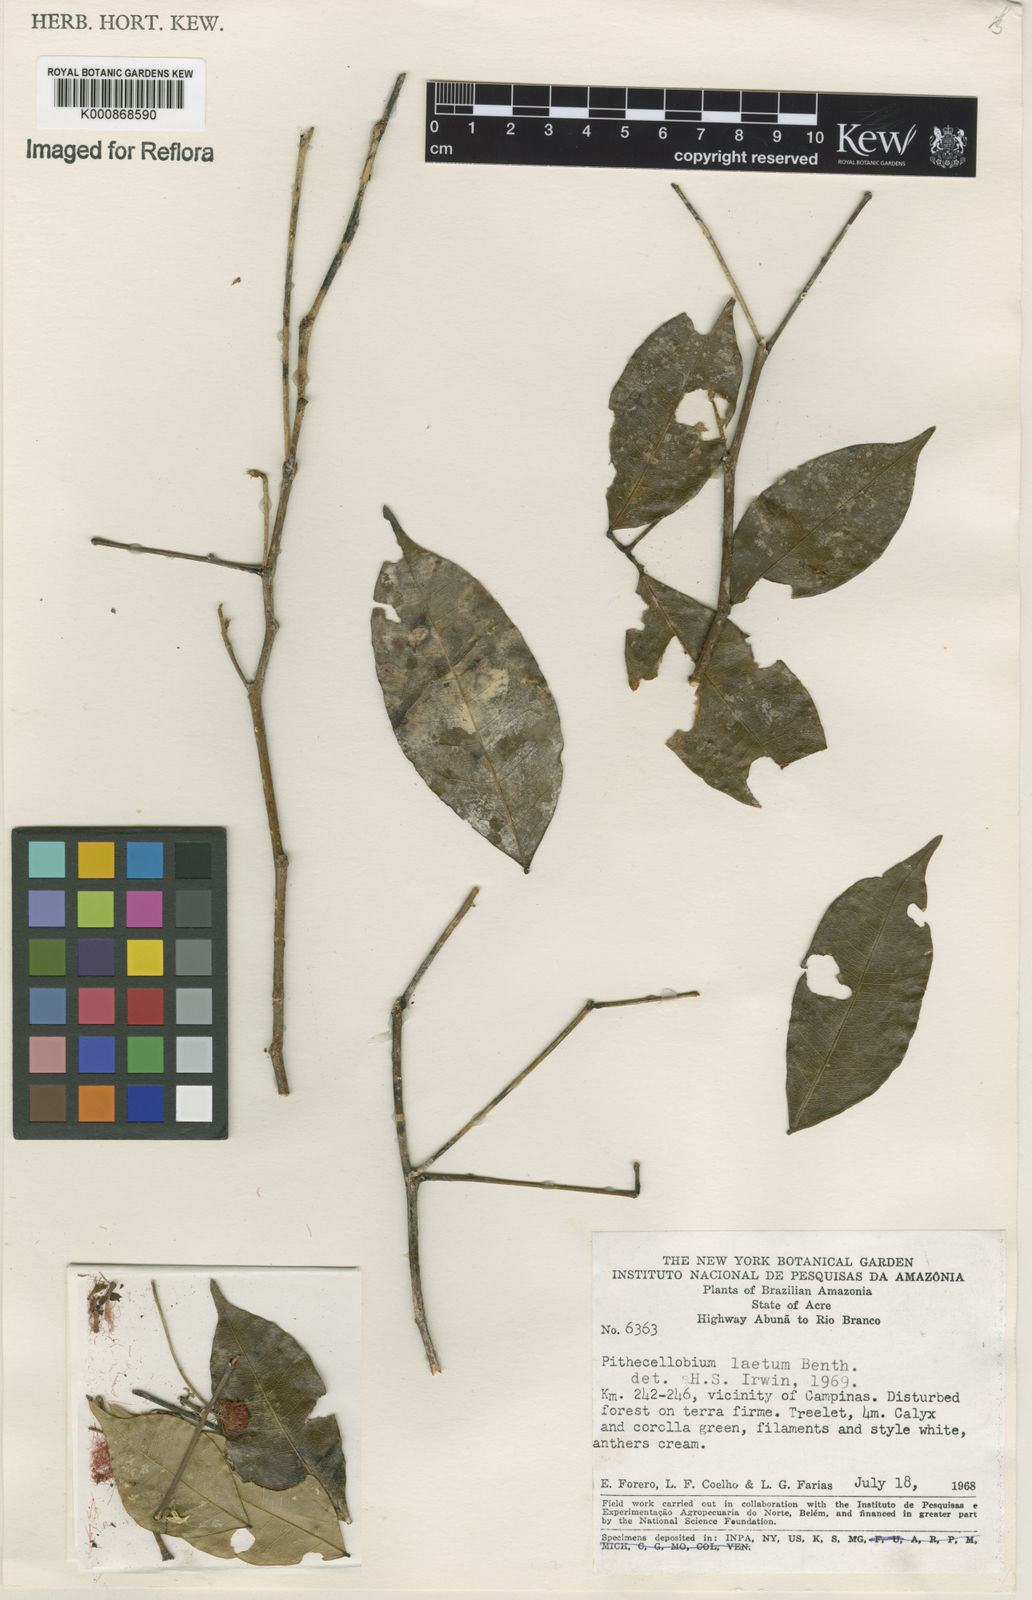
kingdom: Plantae
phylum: Tracheophyta
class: Magnoliopsida
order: Fabales
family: Fabaceae
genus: Jupunba
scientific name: Jupunba laeta
